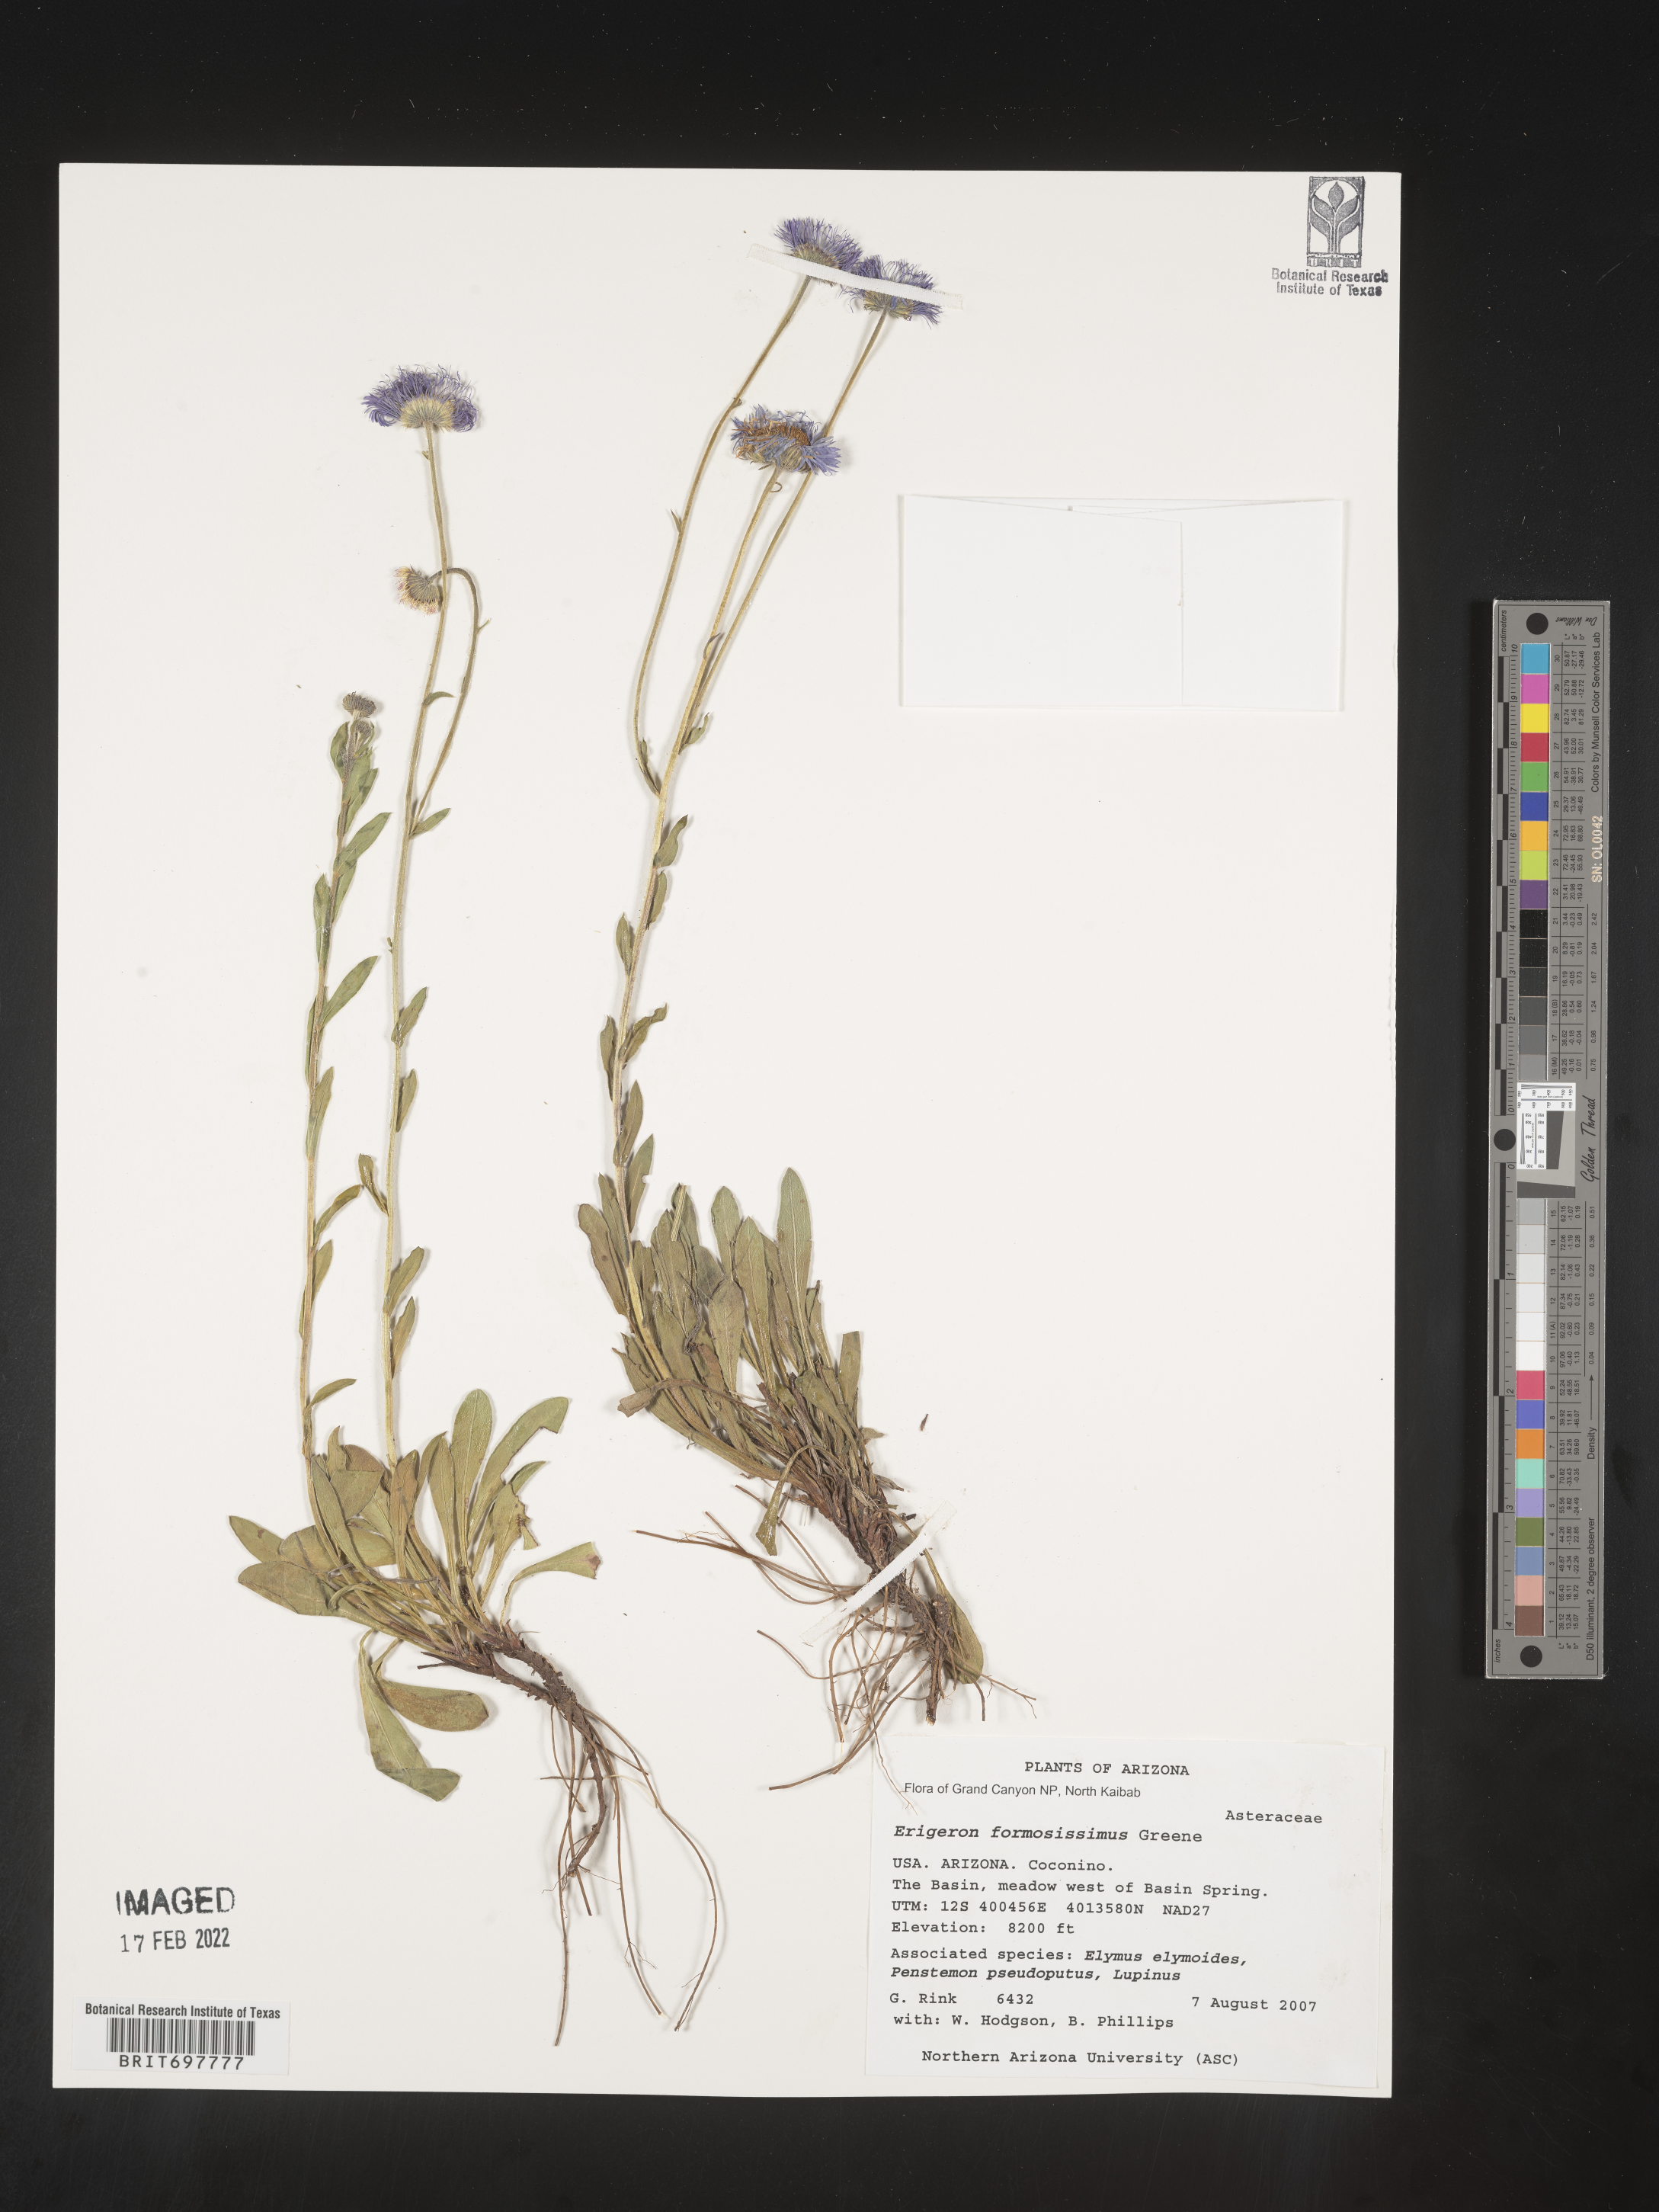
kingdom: Plantae
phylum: Tracheophyta
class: Magnoliopsida
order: Asterales
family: Asteraceae
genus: Erigeron
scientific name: Erigeron formosissimus
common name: Beautiful fleabane
